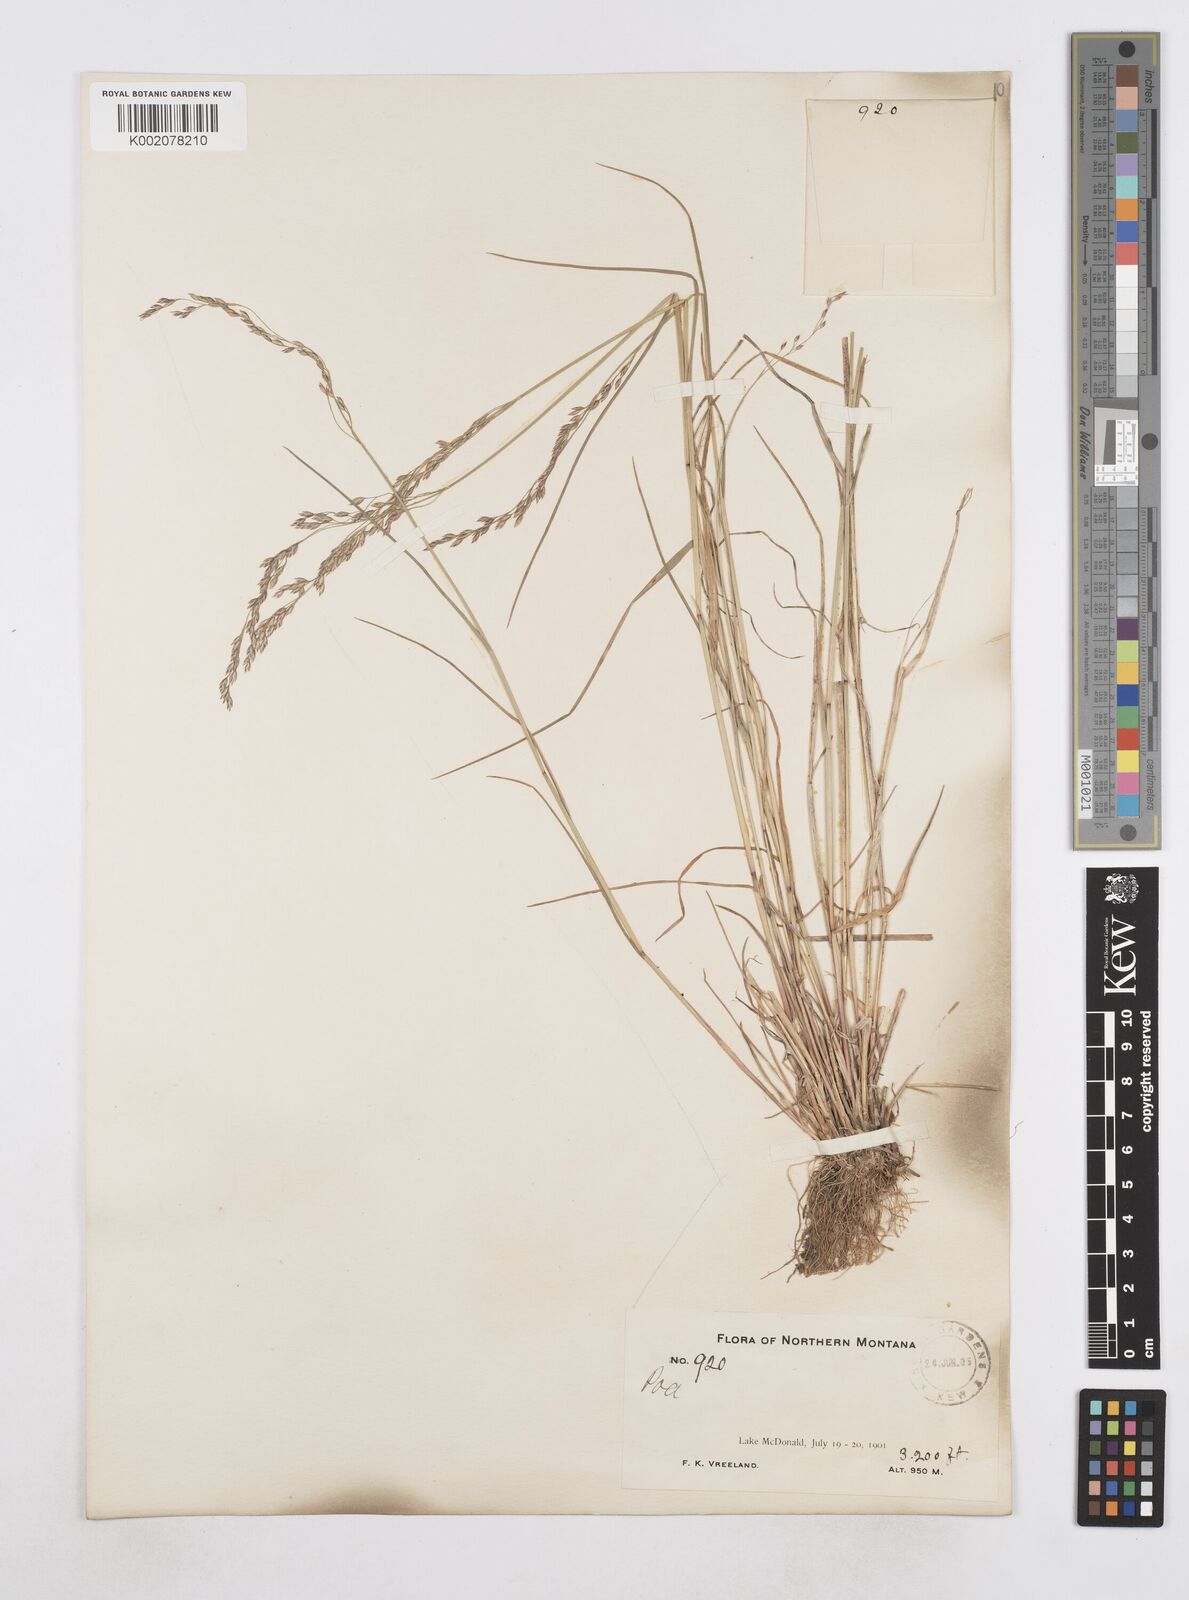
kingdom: Plantae
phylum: Tracheophyta
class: Liliopsida
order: Poales
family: Poaceae
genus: Poa
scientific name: Poa
